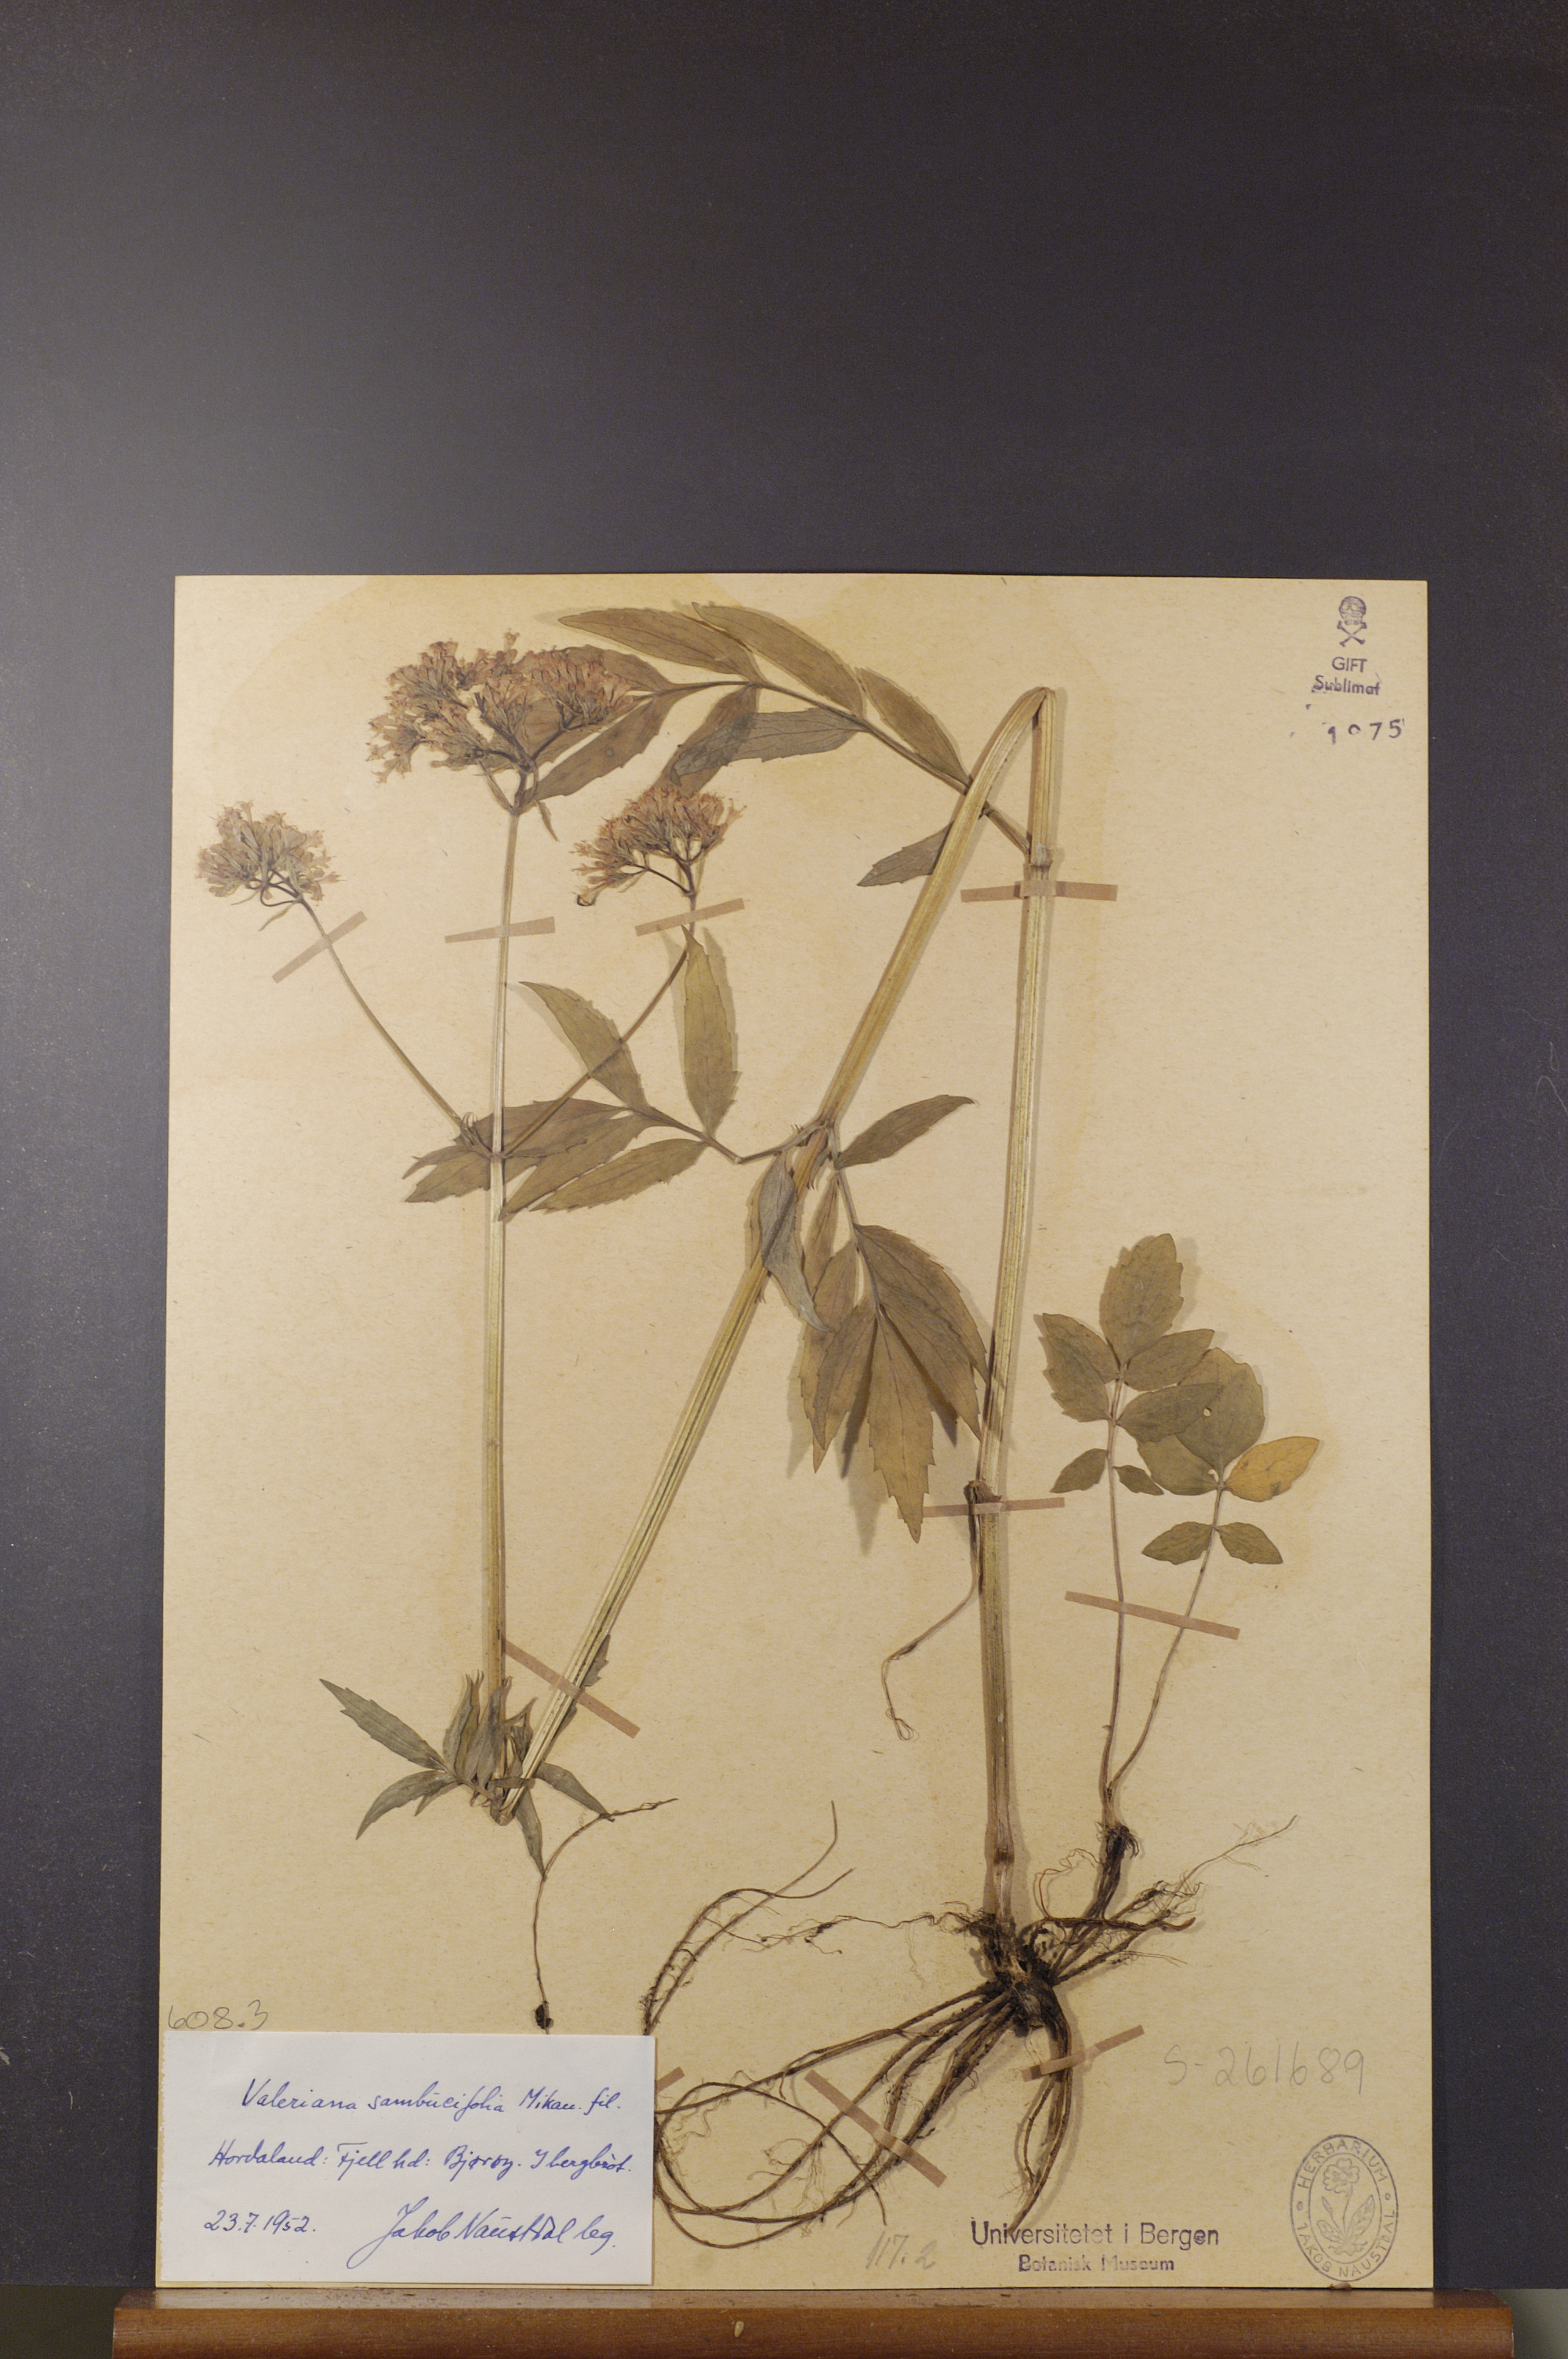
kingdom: Plantae
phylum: Tracheophyta
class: Magnoliopsida
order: Dipsacales
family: Caprifoliaceae
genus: Valeriana
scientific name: Valeriana excelsa
